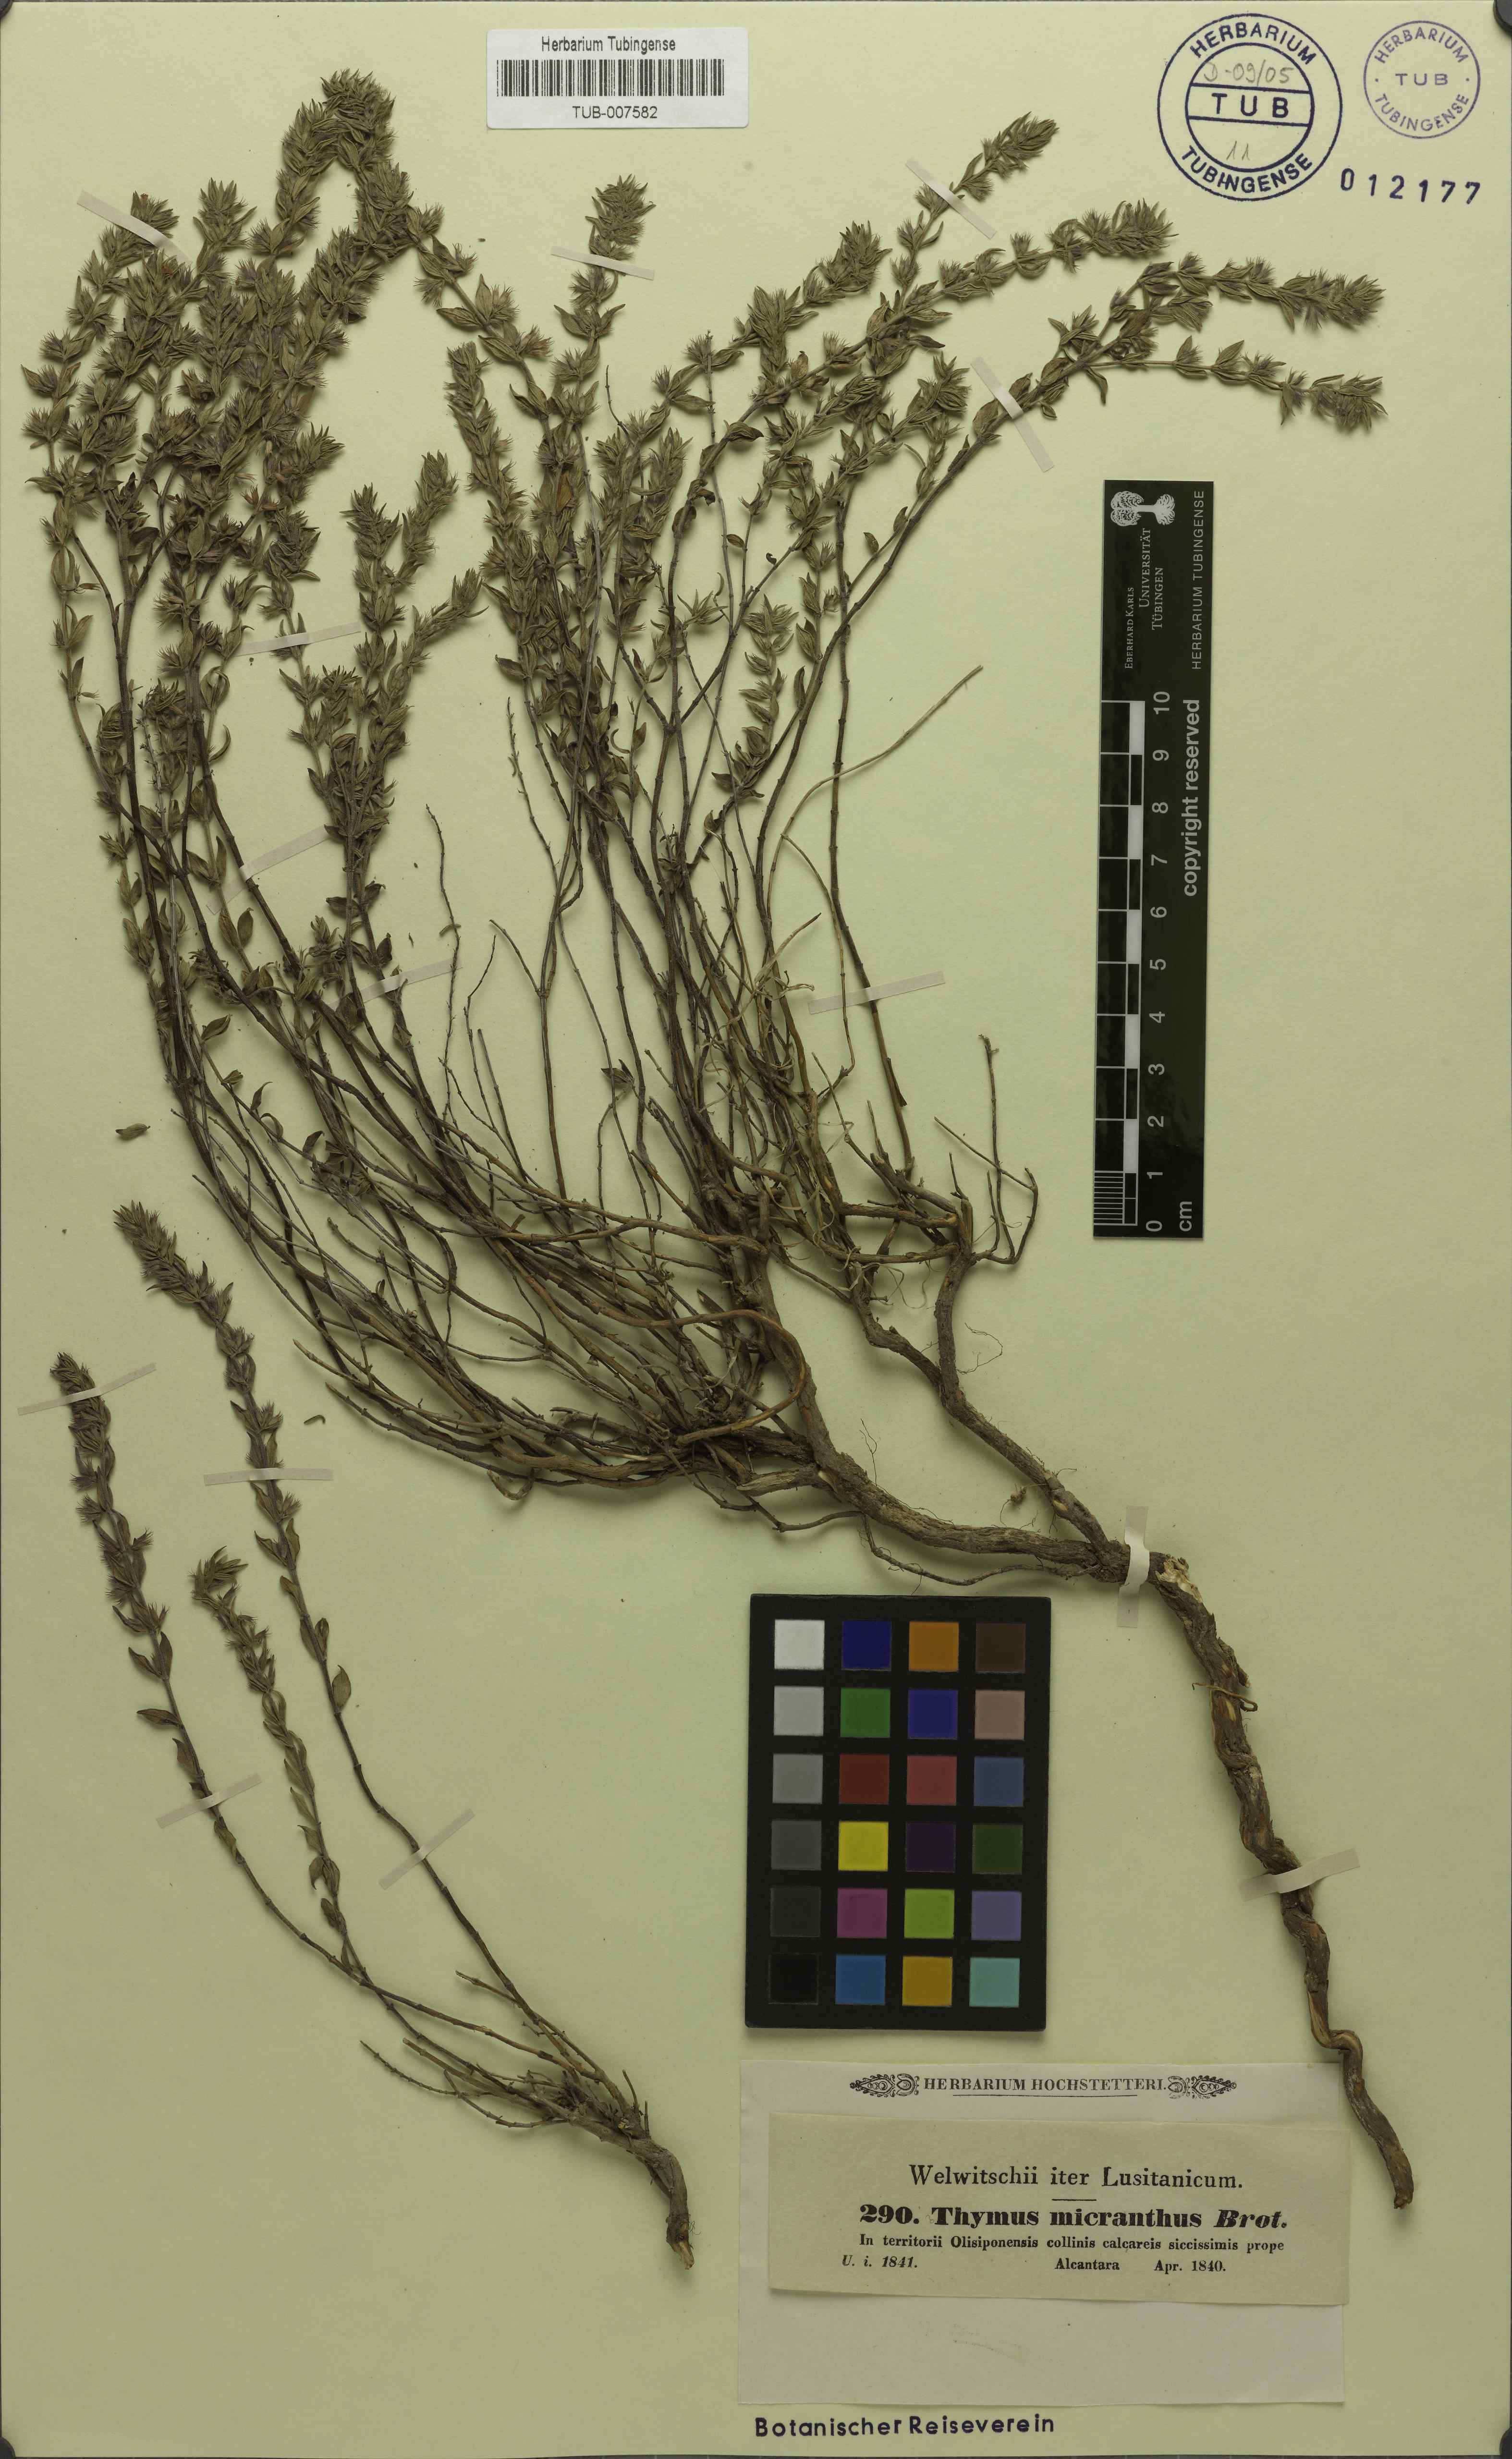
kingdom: Plantae
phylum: Tracheophyta
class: Magnoliopsida
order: Lamiales
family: Lamiaceae
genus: Micromeria
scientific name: Micromeria graeca
